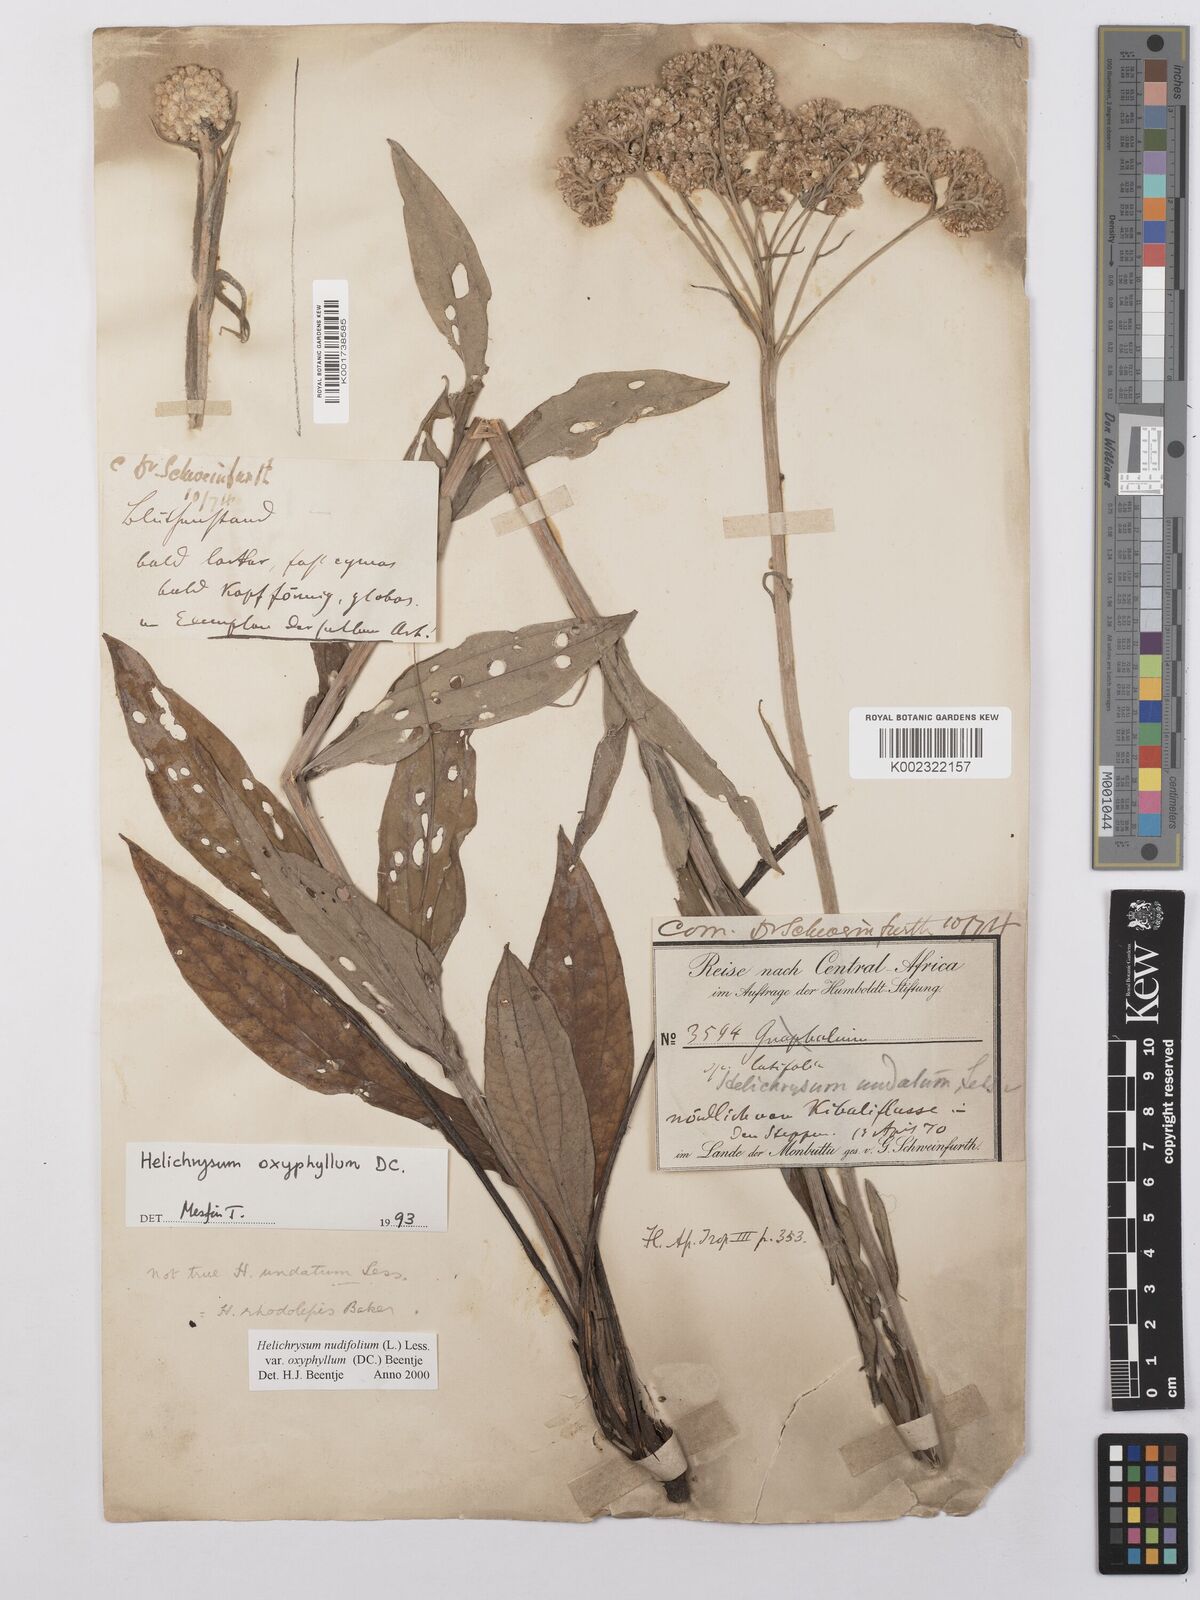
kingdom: Plantae
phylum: Tracheophyta
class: Magnoliopsida
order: Asterales
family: Asteraceae
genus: Helichrysum
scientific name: Helichrysum nudifolium
